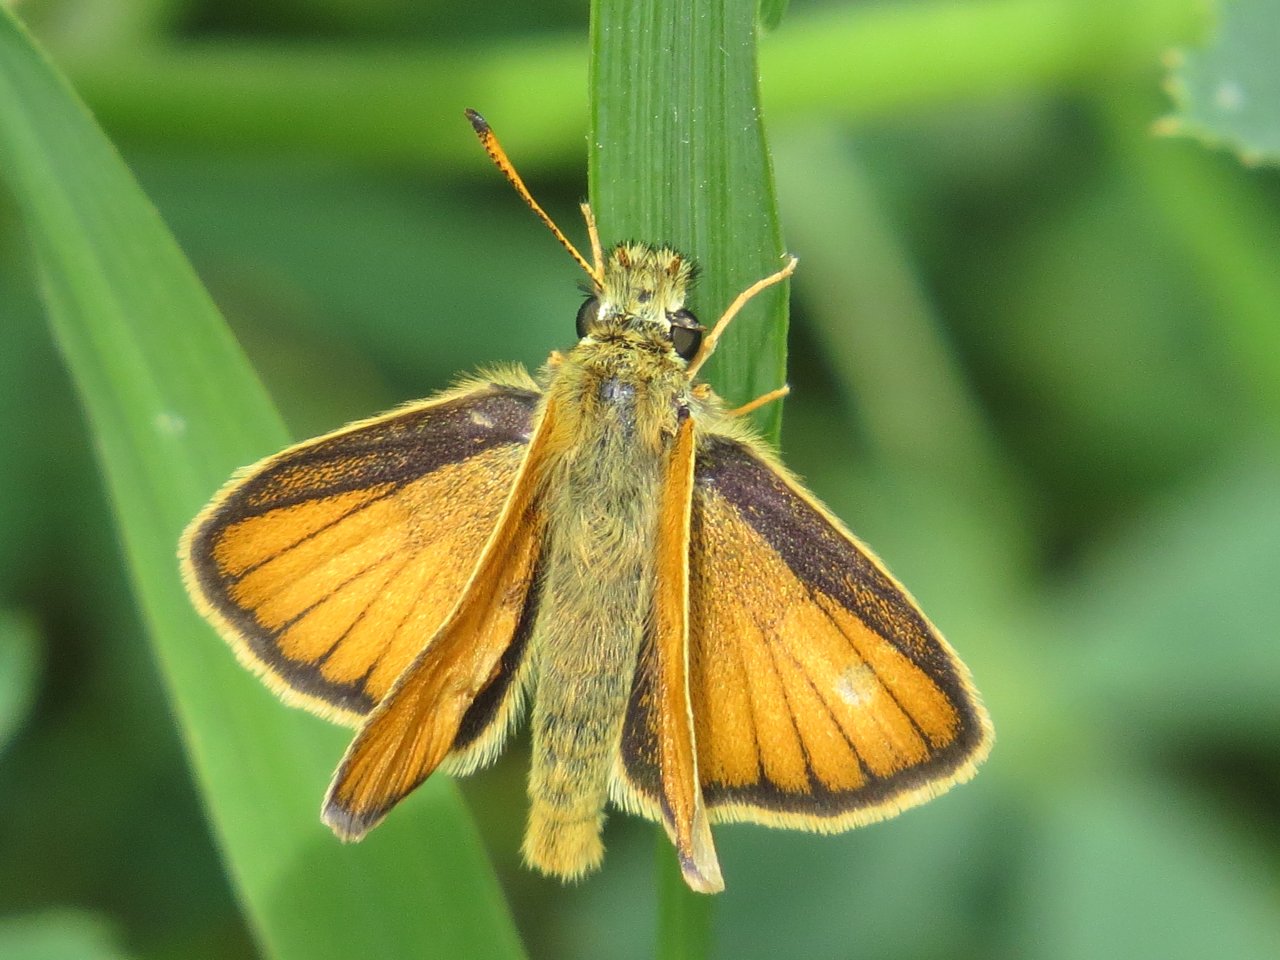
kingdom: Animalia
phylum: Arthropoda
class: Insecta
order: Lepidoptera
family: Hesperiidae
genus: Thymelicus
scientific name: Thymelicus lineola
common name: European Skipper
